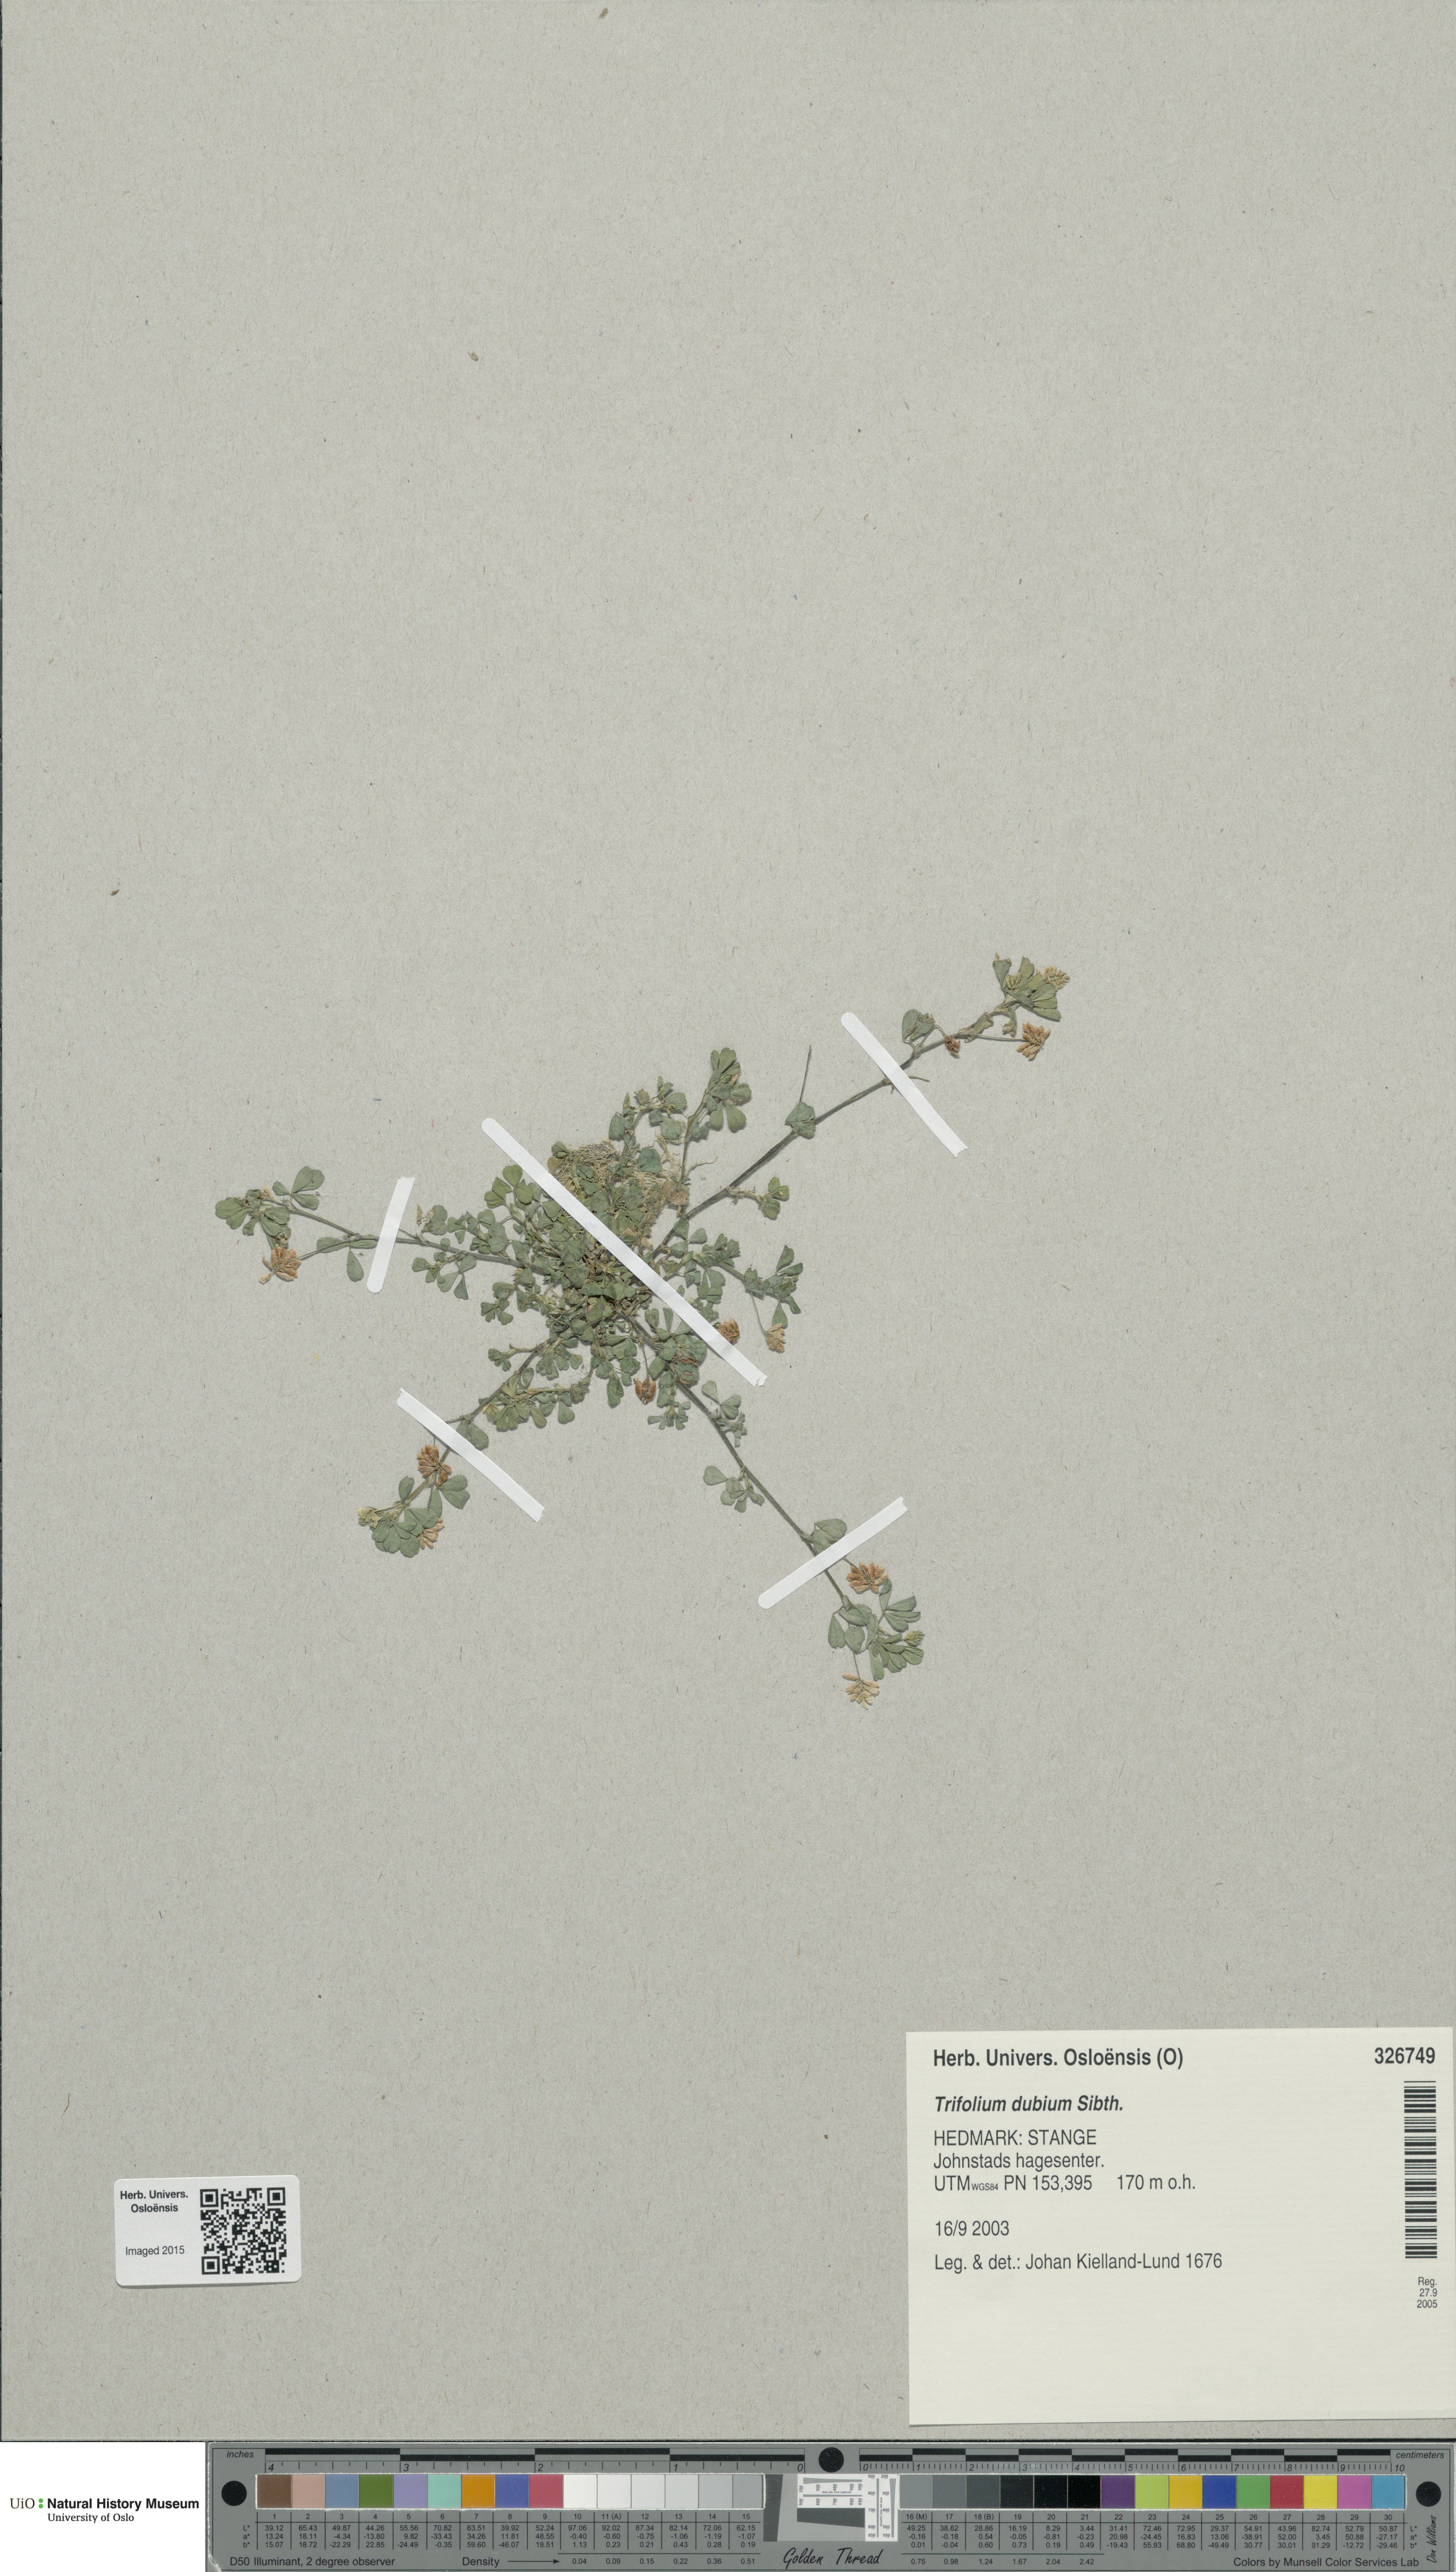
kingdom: Plantae
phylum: Tracheophyta
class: Magnoliopsida
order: Fabales
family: Fabaceae
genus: Trifolium
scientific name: Trifolium dubium
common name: Suckling clover
